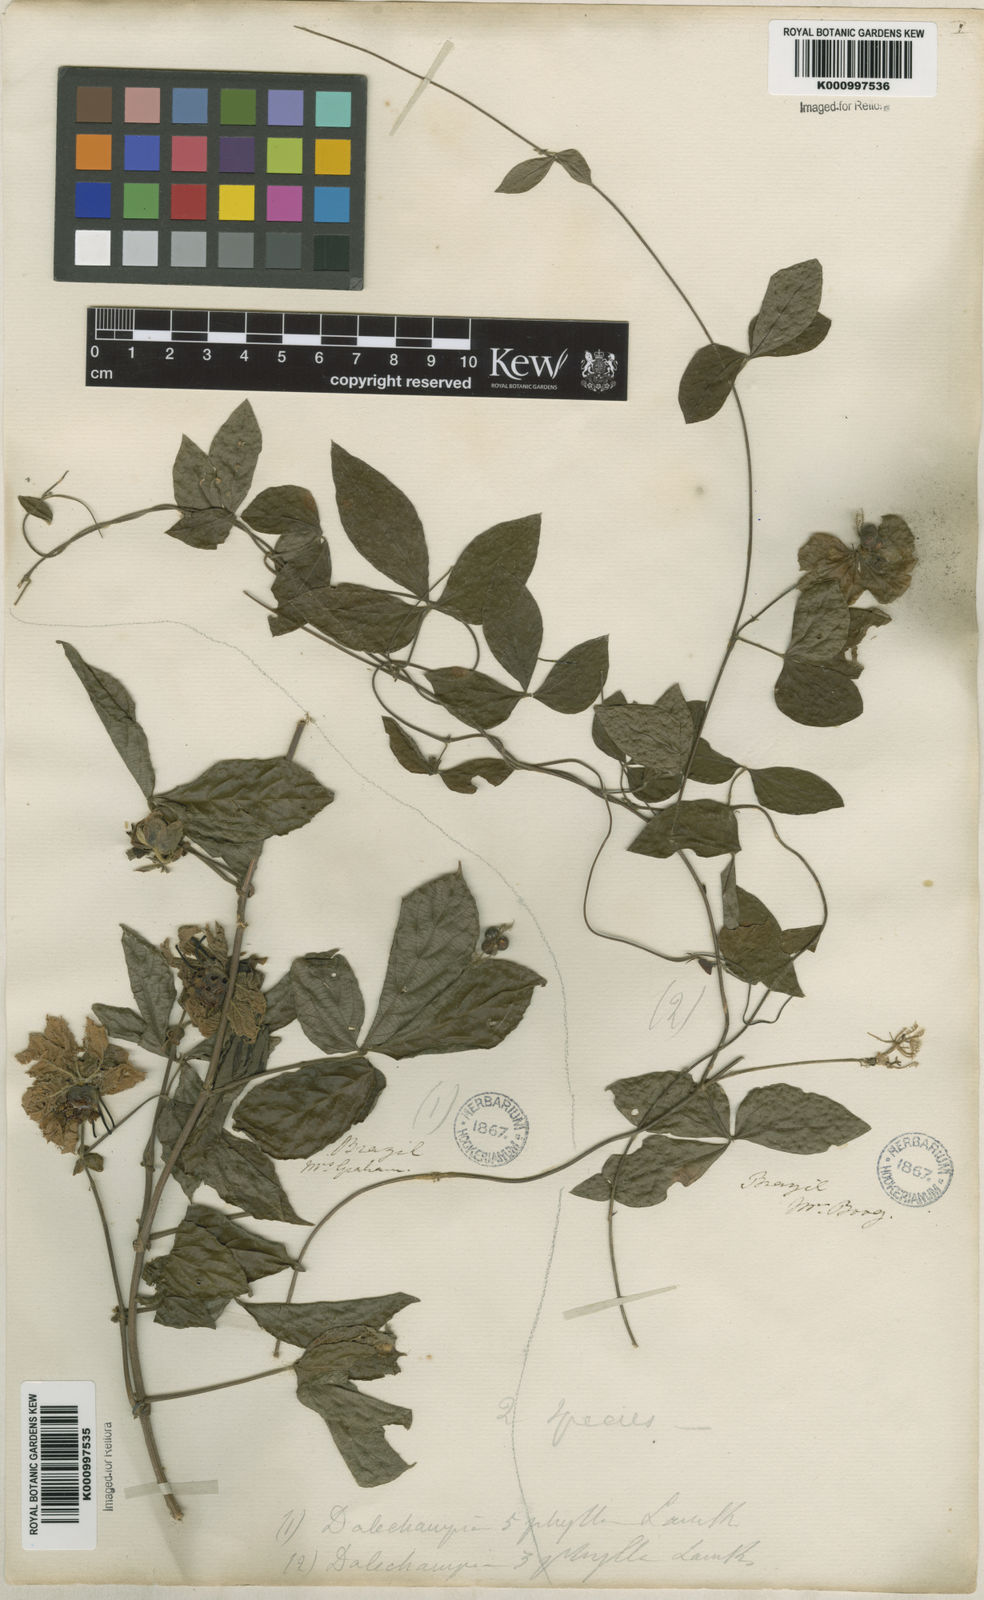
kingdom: Plantae
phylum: Tracheophyta
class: Magnoliopsida
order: Malpighiales
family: Euphorbiaceae
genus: Dalechampia
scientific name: Dalechampia triphylla
